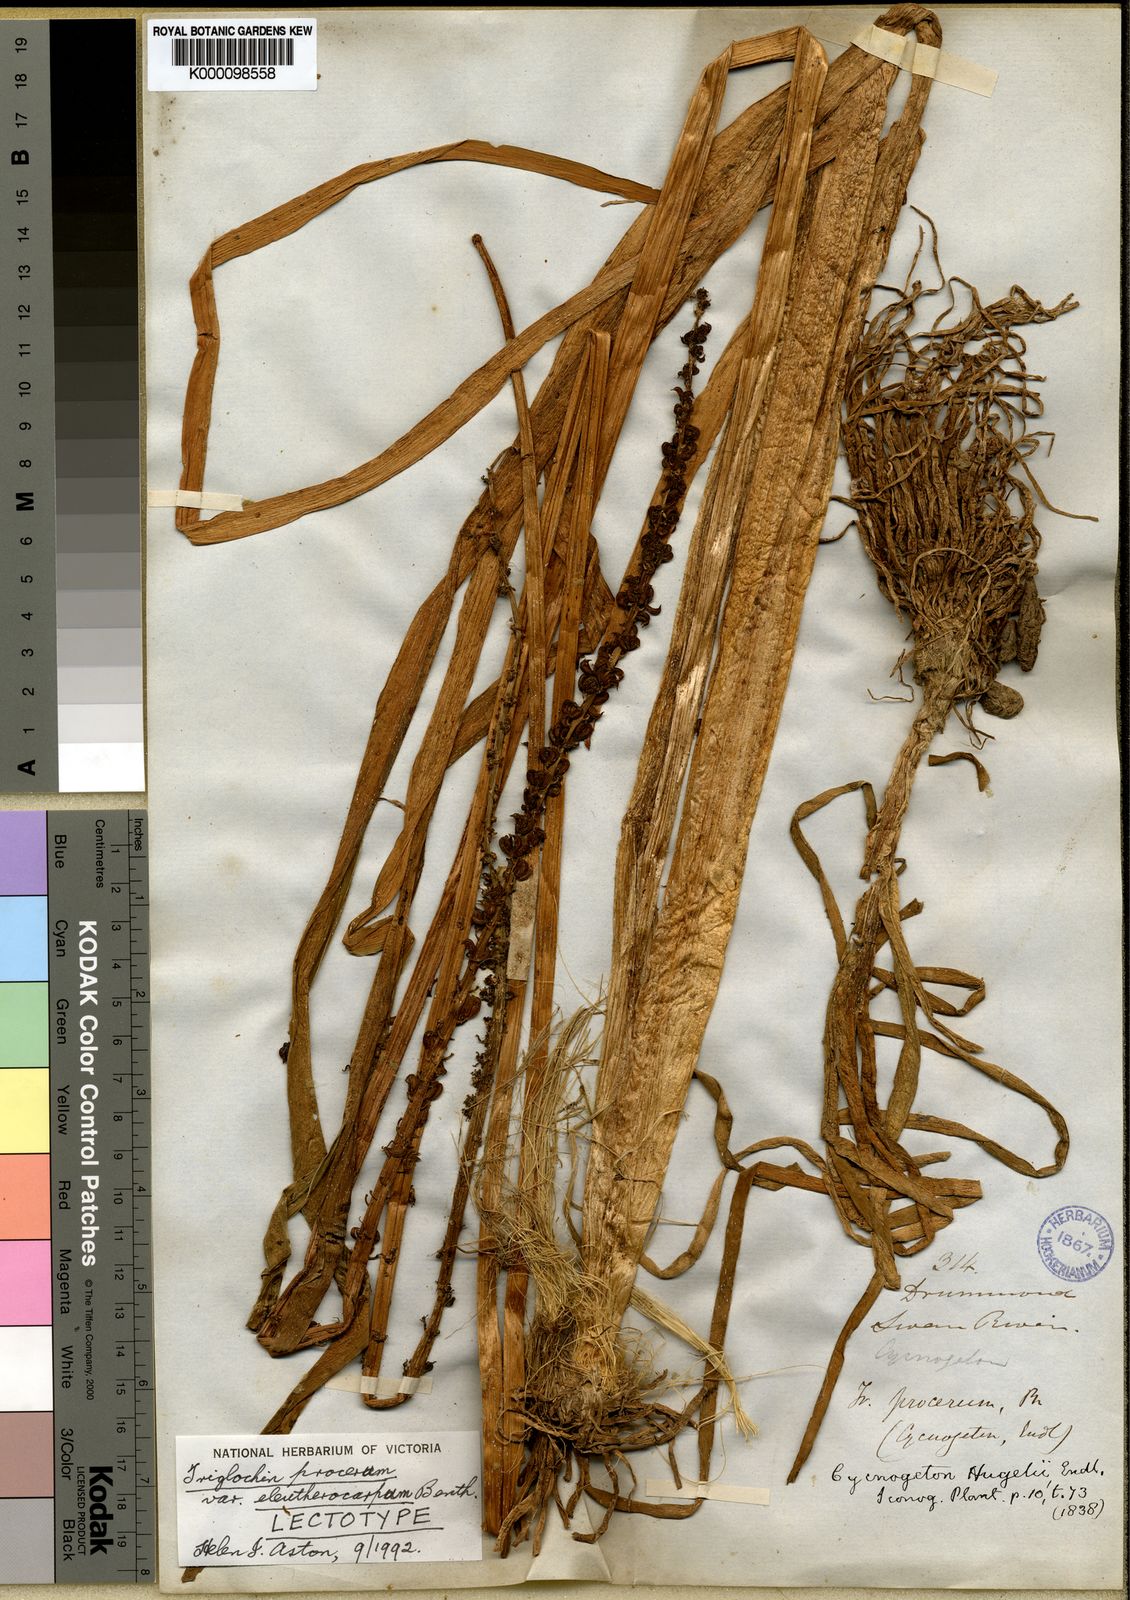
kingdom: Plantae
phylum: Tracheophyta
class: Liliopsida
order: Alismatales
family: Juncaginaceae
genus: Cycnogeton
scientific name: Cycnogeton procerum
